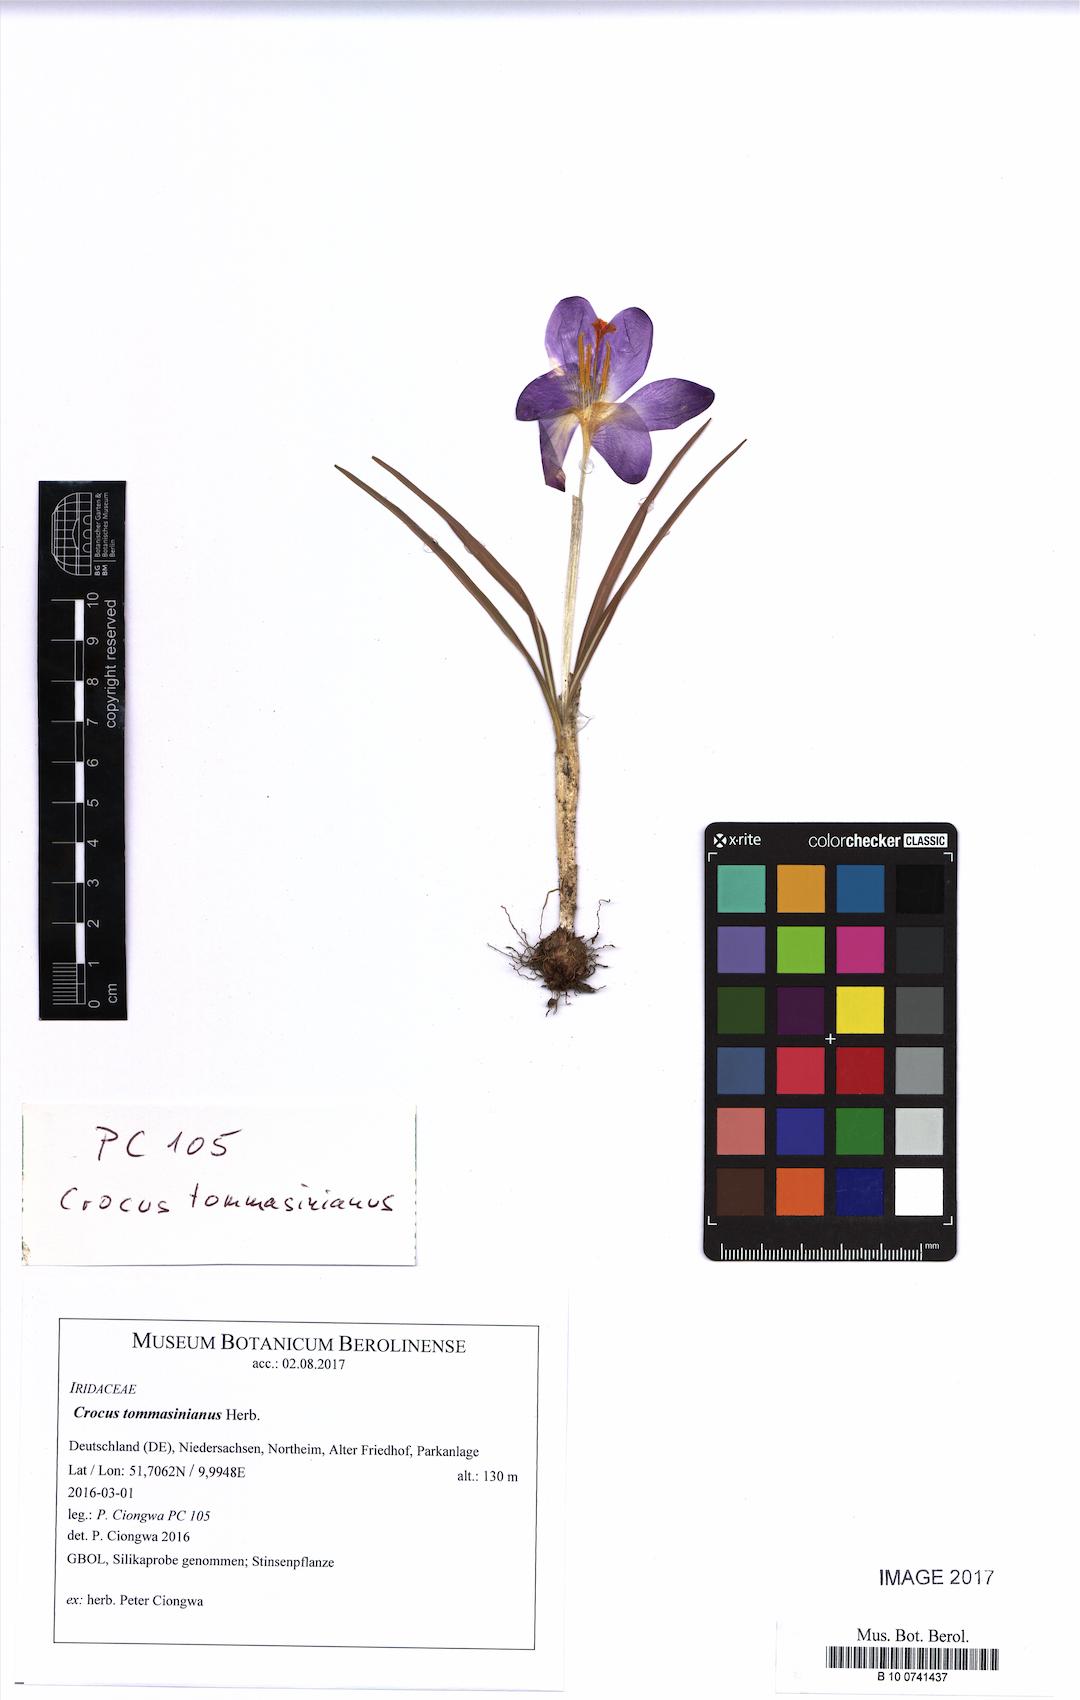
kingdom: Plantae
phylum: Tracheophyta
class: Liliopsida
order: Asparagales
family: Iridaceae
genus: Crocus
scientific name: Crocus tommasinianus
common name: Early crocus
